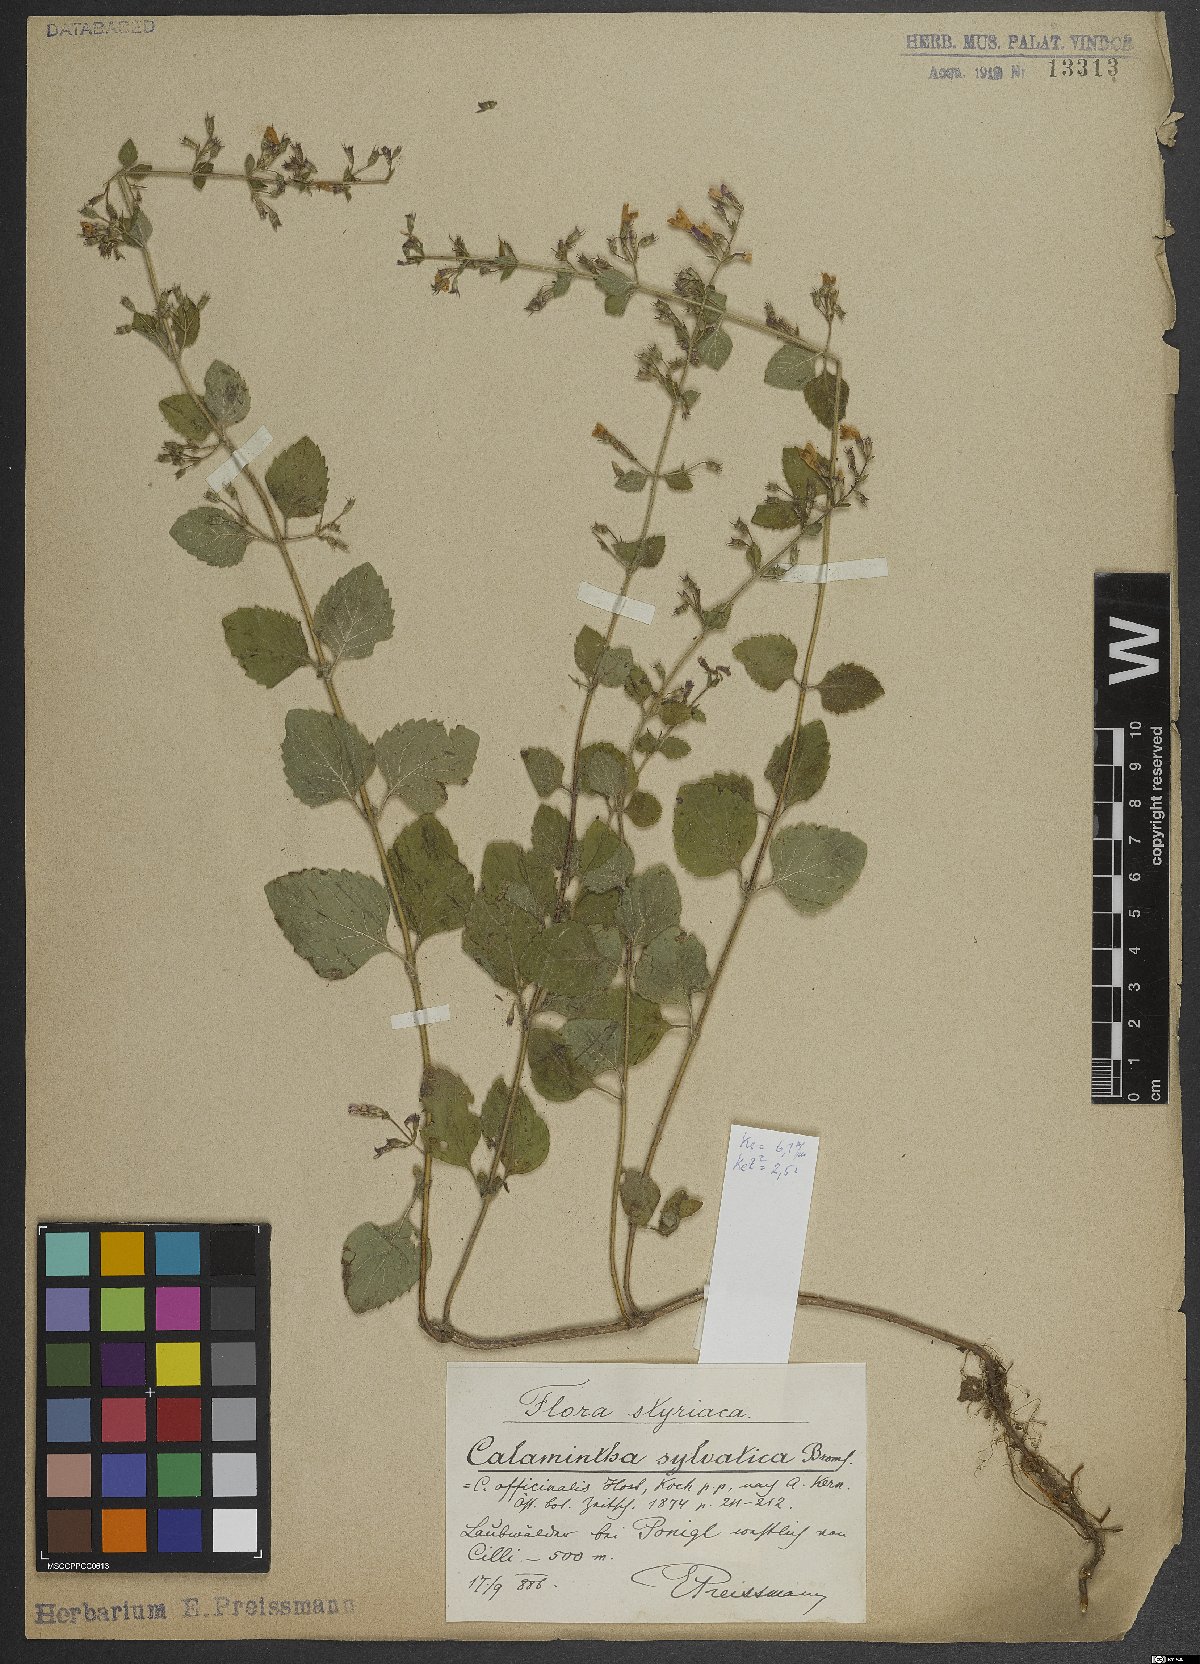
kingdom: Plantae
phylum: Tracheophyta
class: Magnoliopsida
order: Lamiales
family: Lamiaceae
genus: Clinopodium
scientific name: Clinopodium menthifolium
